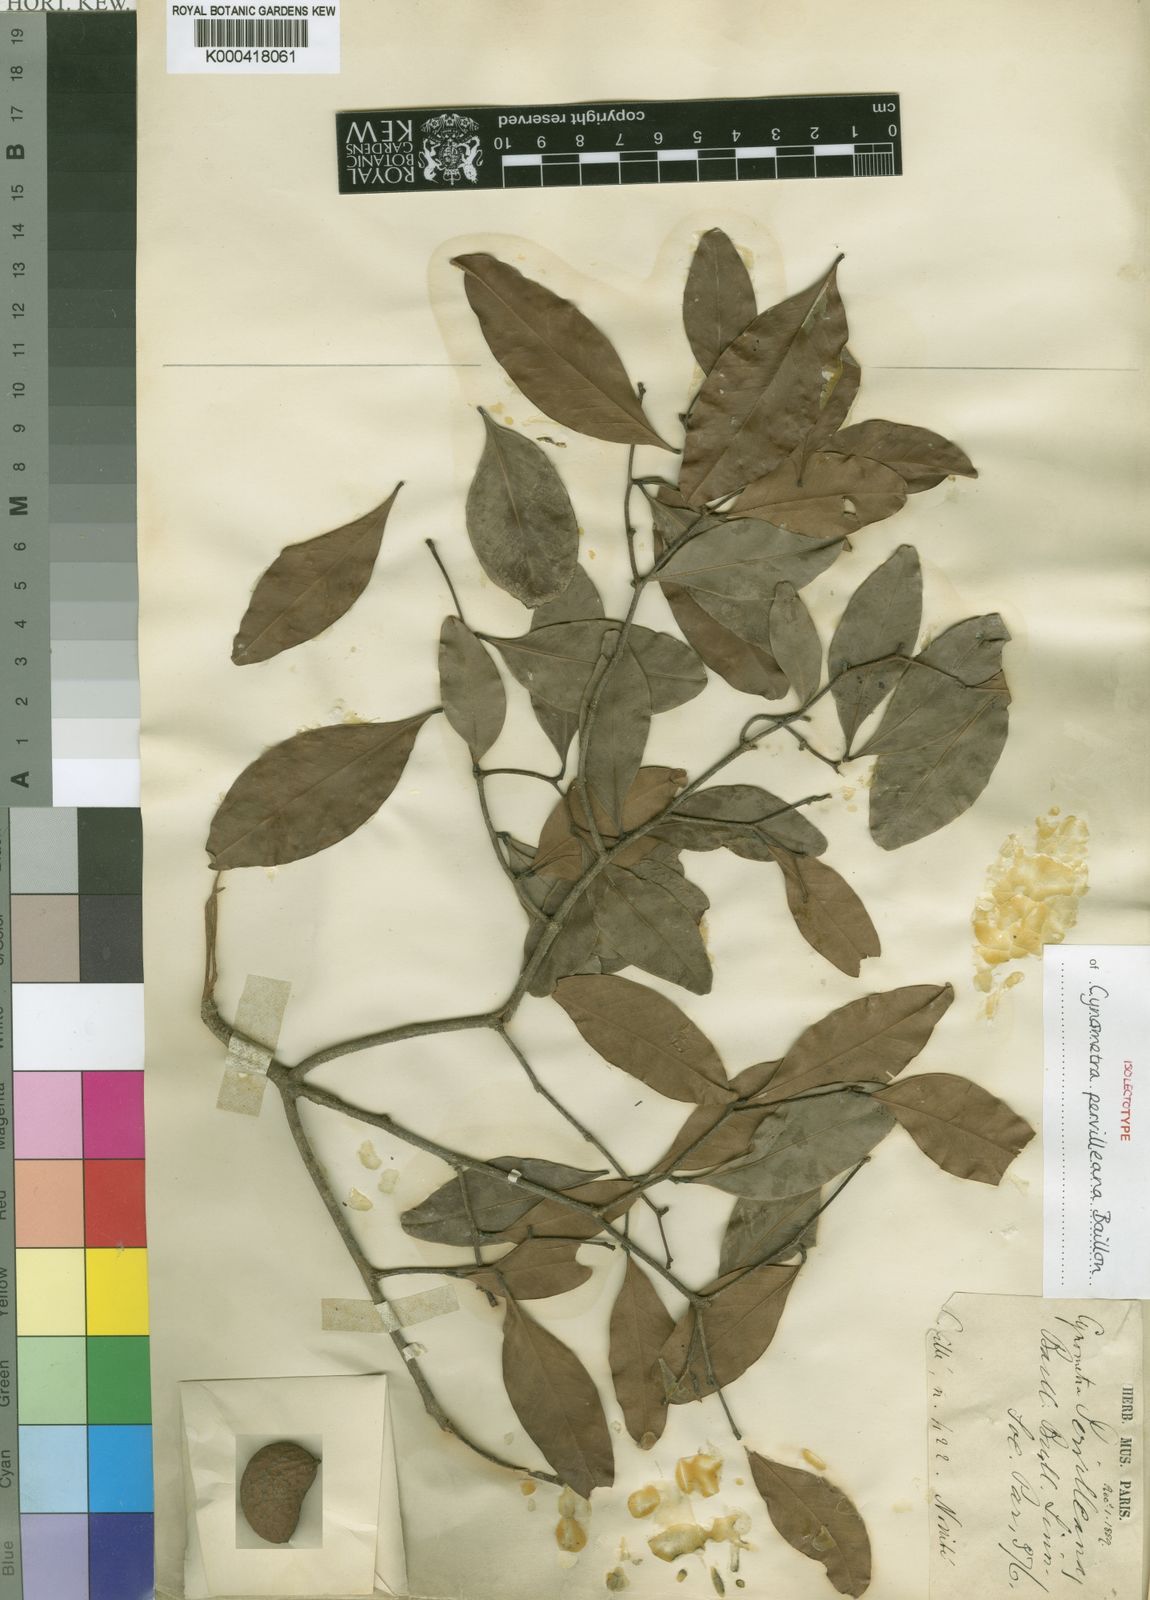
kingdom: Plantae
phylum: Tracheophyta
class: Magnoliopsida
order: Fabales
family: Fabaceae
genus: Cynometra
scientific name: Cynometra pervilleana
